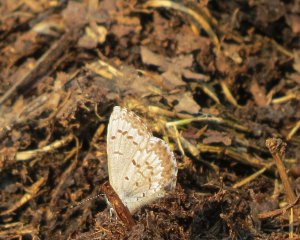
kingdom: Animalia
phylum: Arthropoda
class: Insecta
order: Lepidoptera
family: Lycaenidae
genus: Celastrina
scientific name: Celastrina lucia
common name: Northern Spring Azure
